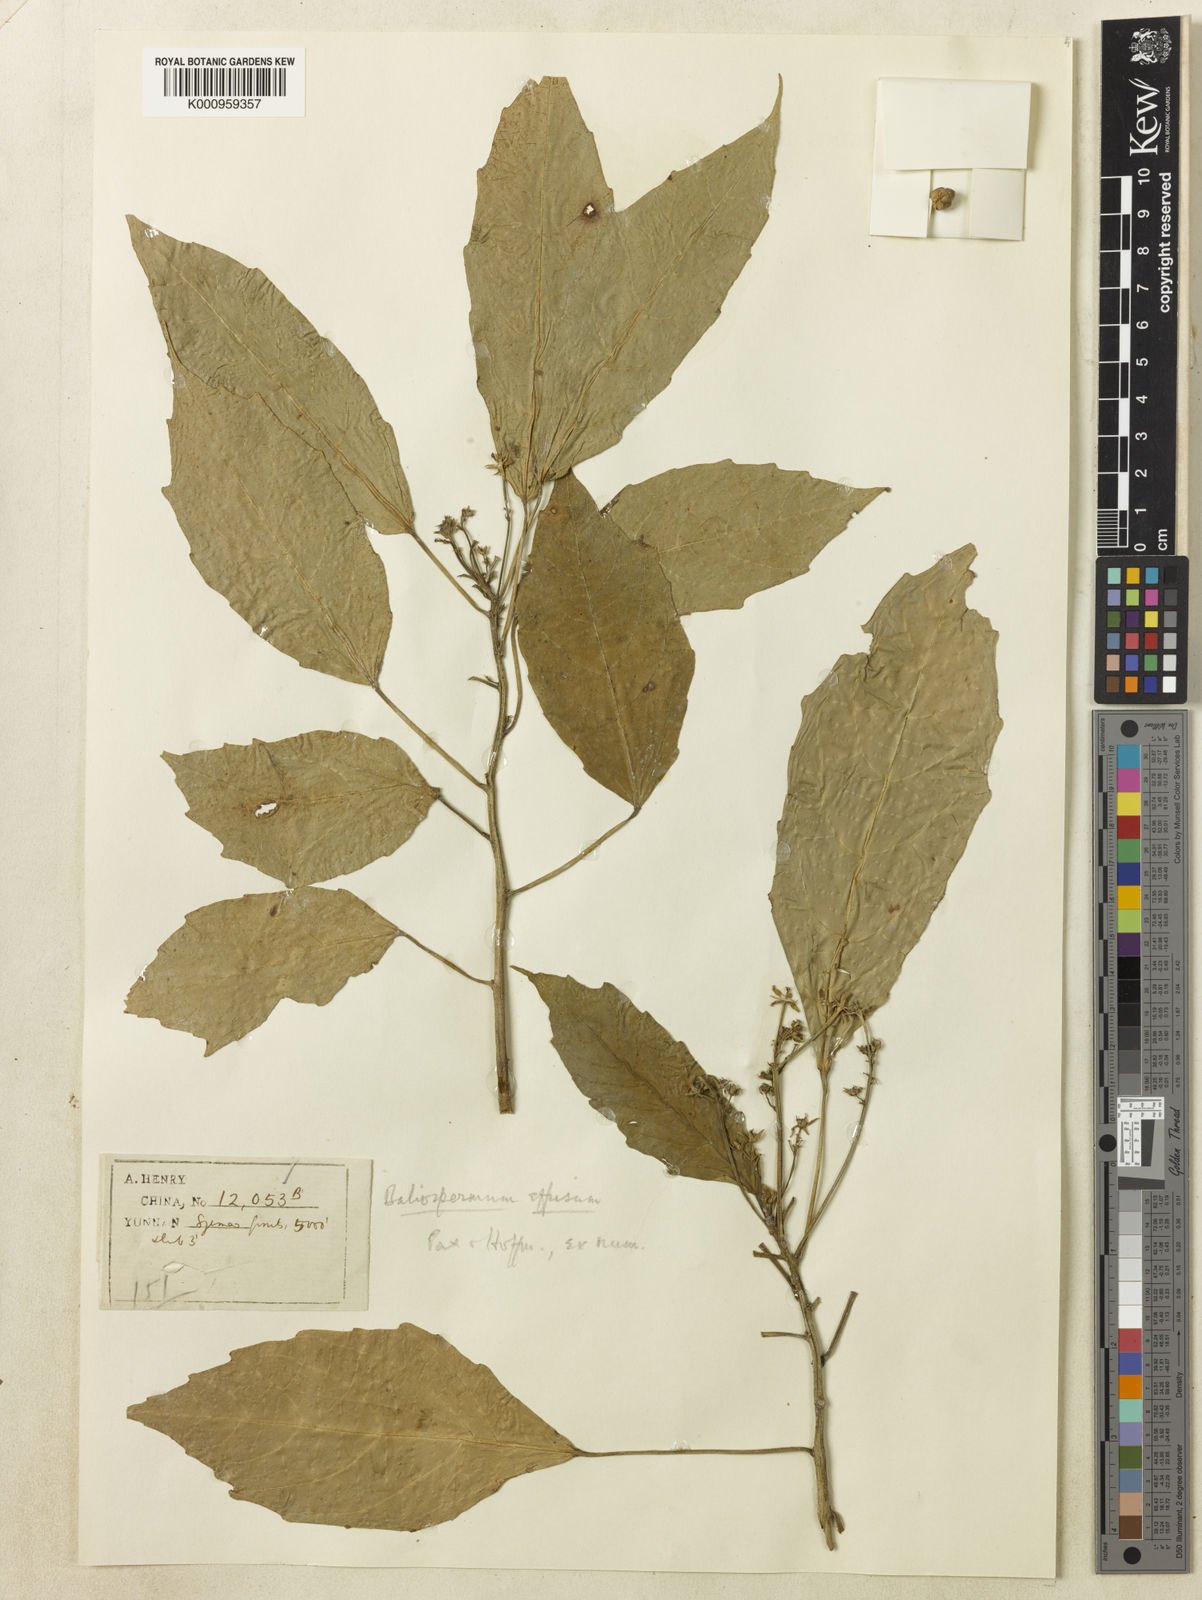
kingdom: Plantae
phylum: Tracheophyta
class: Magnoliopsida
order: Malpighiales
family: Euphorbiaceae
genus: Baliospermum
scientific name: Baliospermum calycinum
